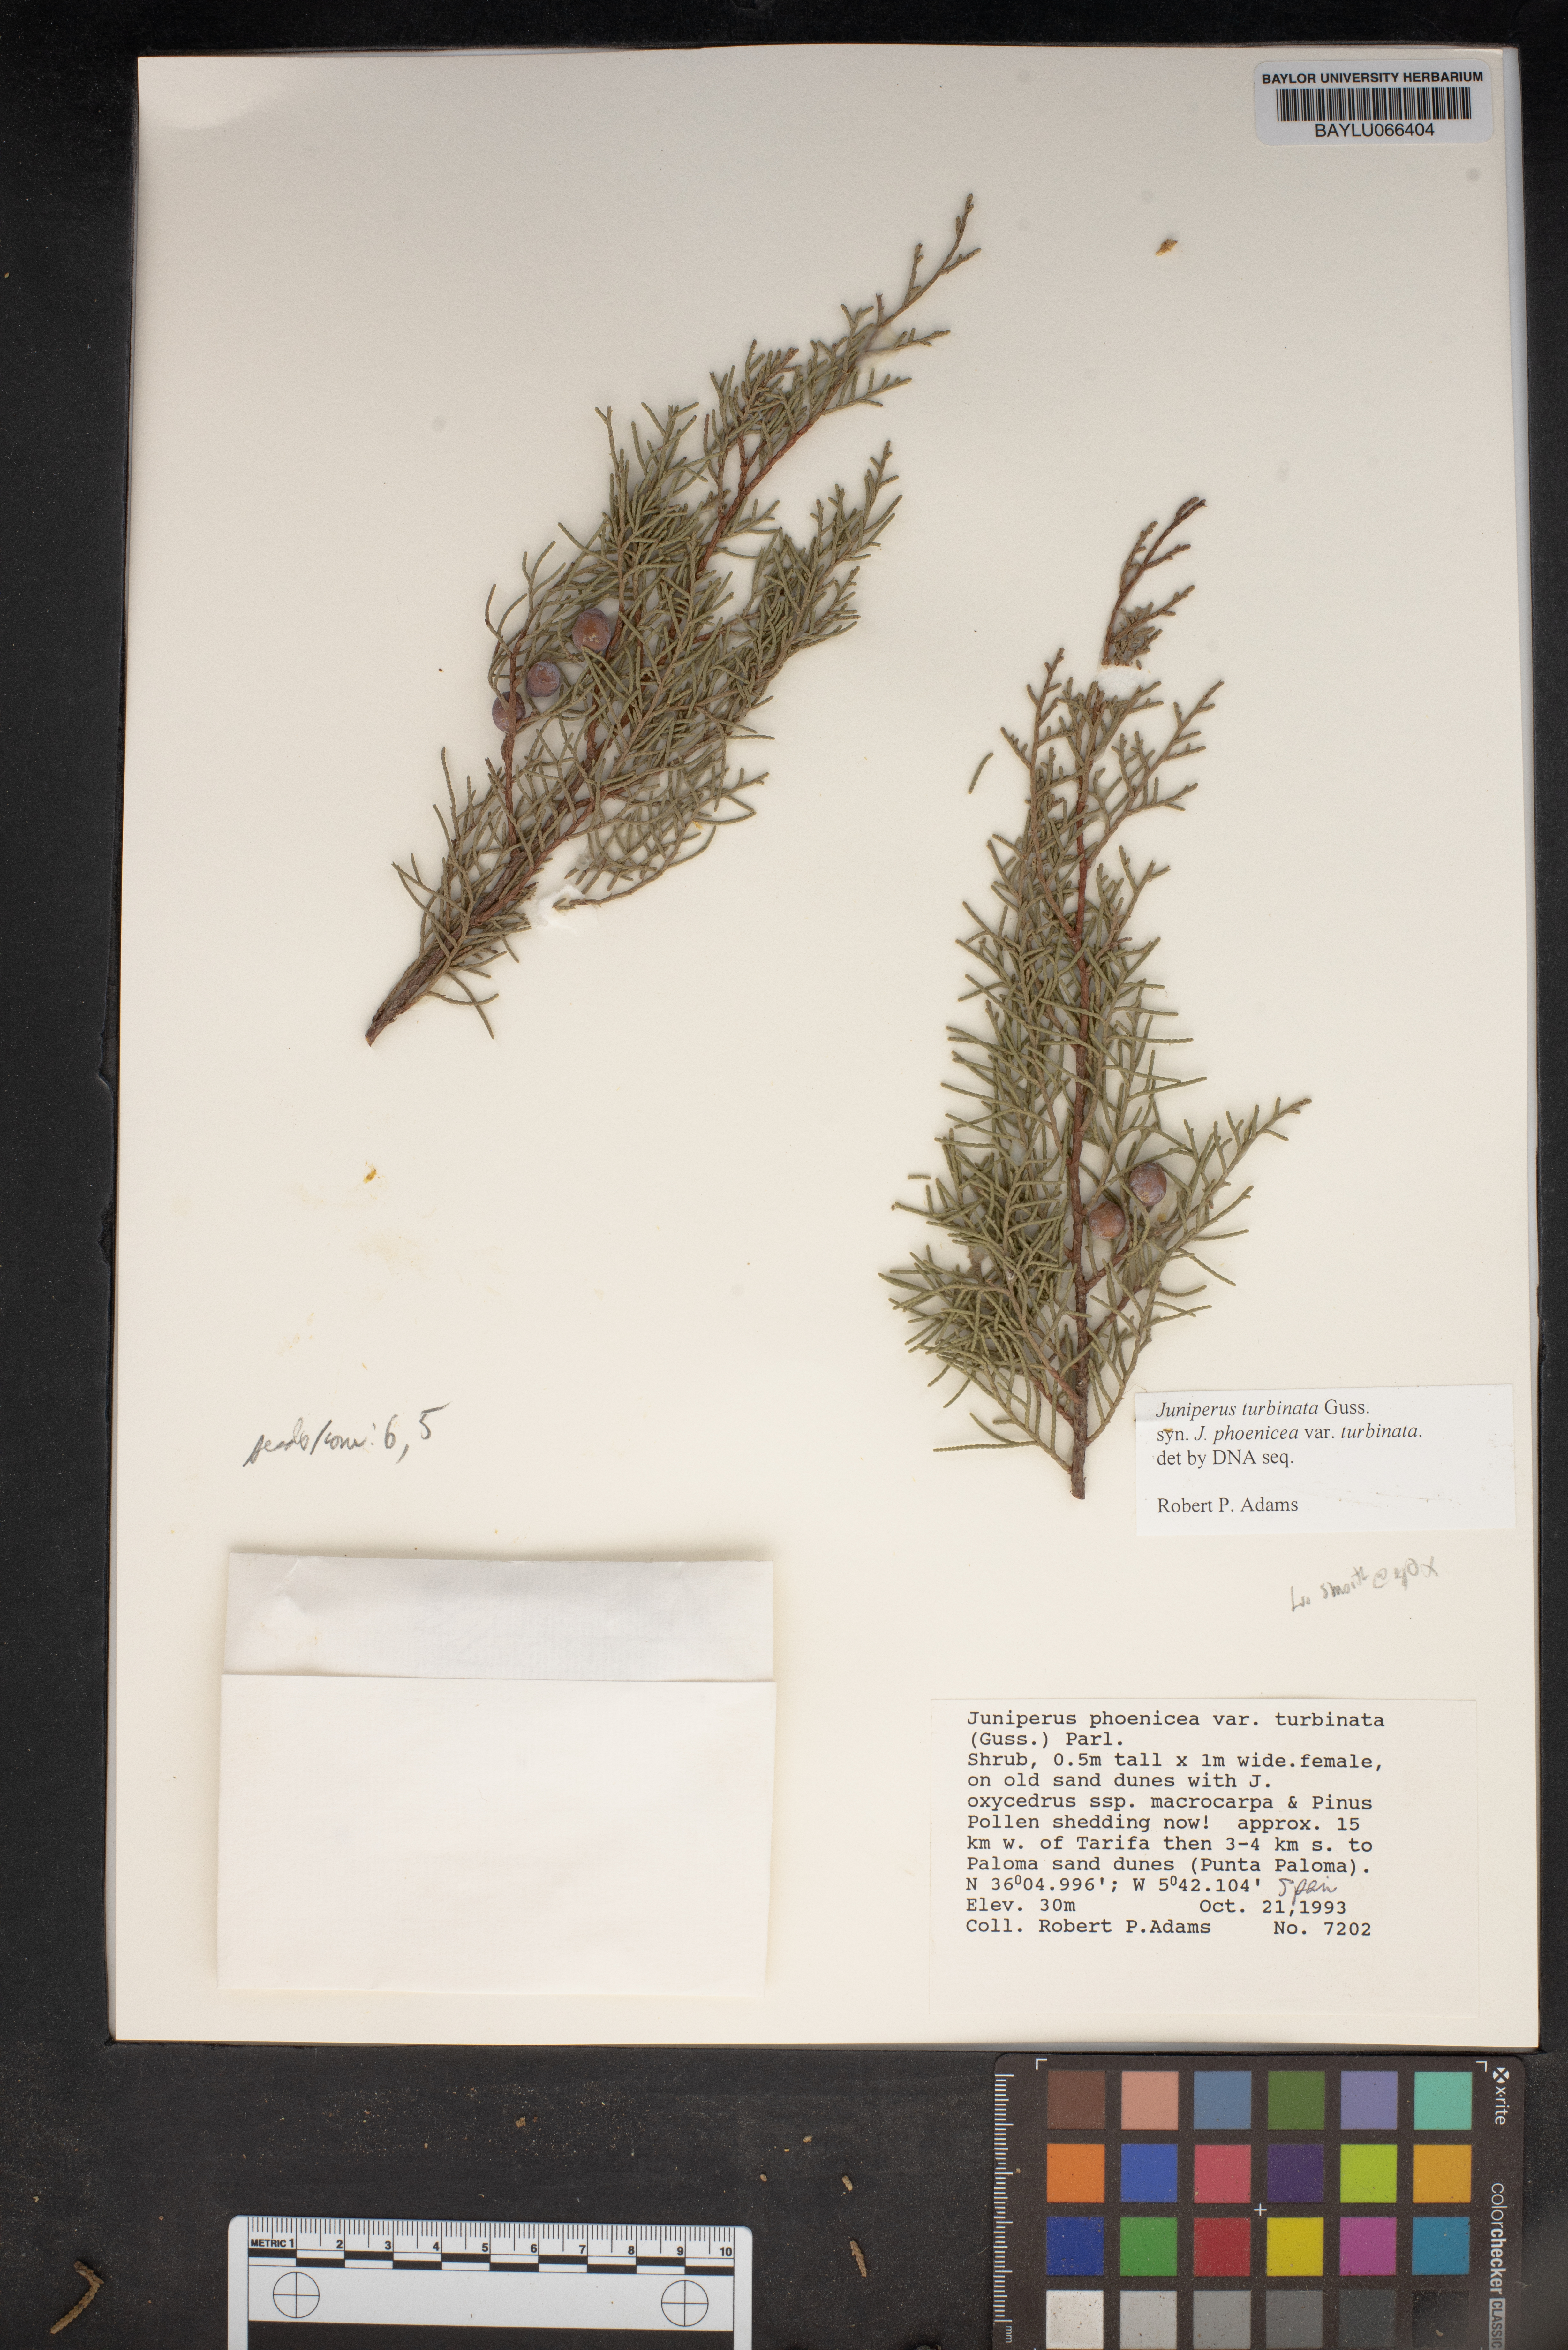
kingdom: Plantae
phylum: Tracheophyta
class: Pinopsida
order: Pinales
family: Cupressaceae
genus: Juniperus
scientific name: Juniperus phoenicea
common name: Phoenician juniper
